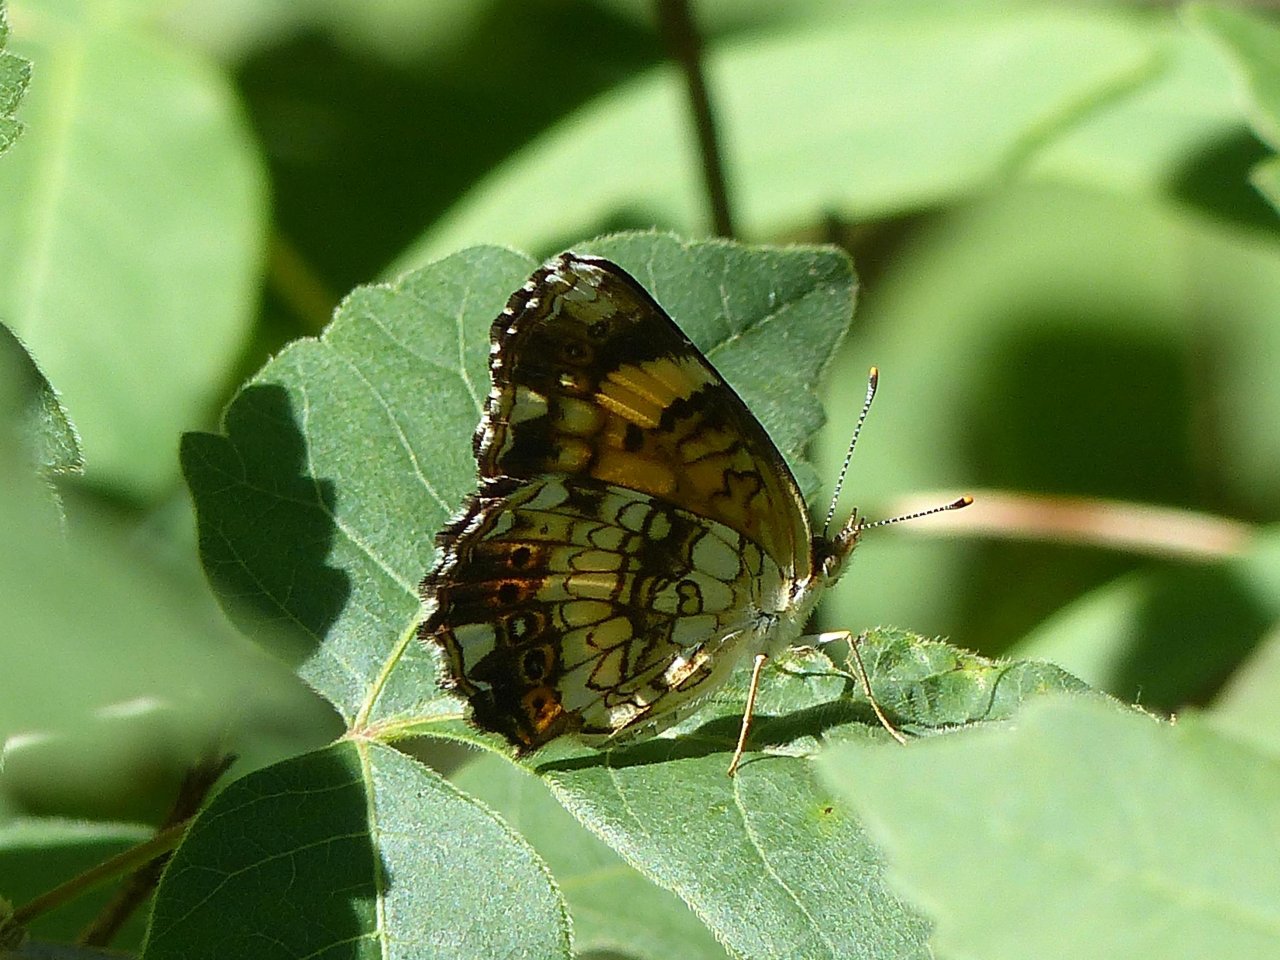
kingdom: Animalia
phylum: Arthropoda
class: Insecta
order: Lepidoptera
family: Nymphalidae
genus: Chlosyne
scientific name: Chlosyne nycteis
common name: Silvery Checkerspot
